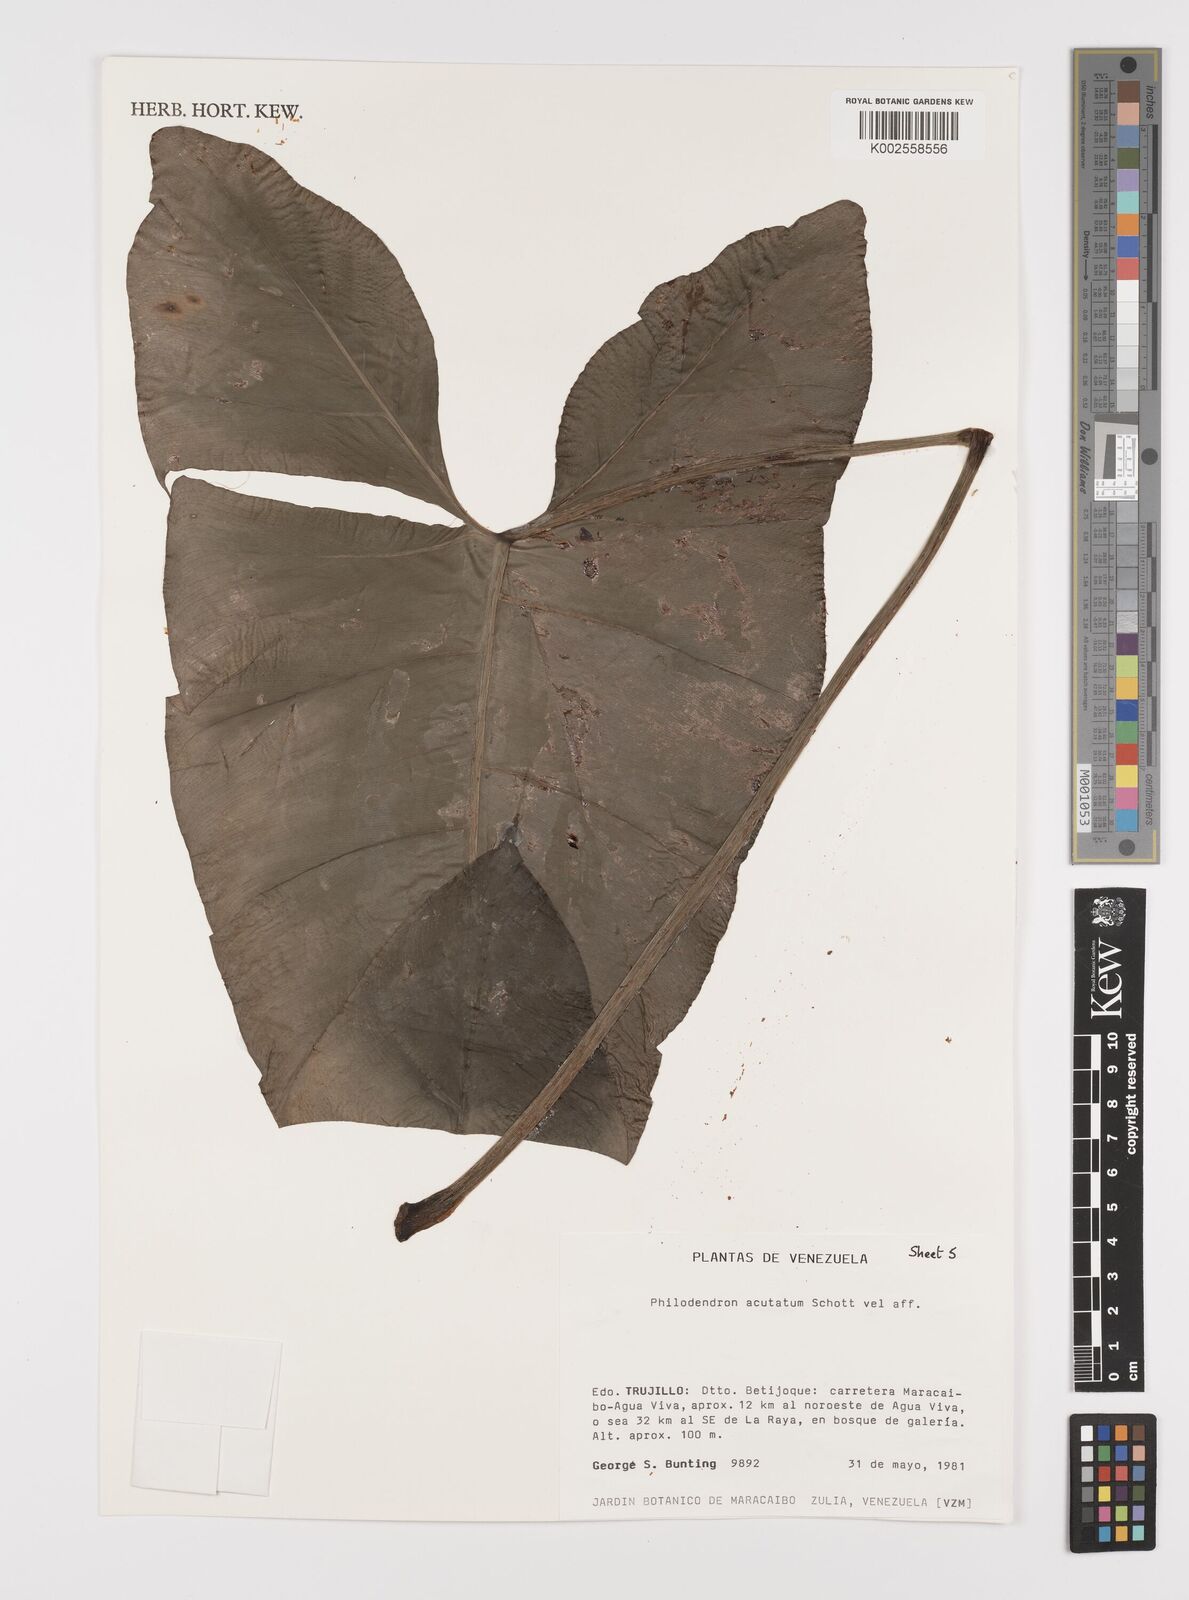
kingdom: Plantae
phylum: Tracheophyta
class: Liliopsida
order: Alismatales
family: Araceae
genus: Philodendron
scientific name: Philodendron quinquenervium
